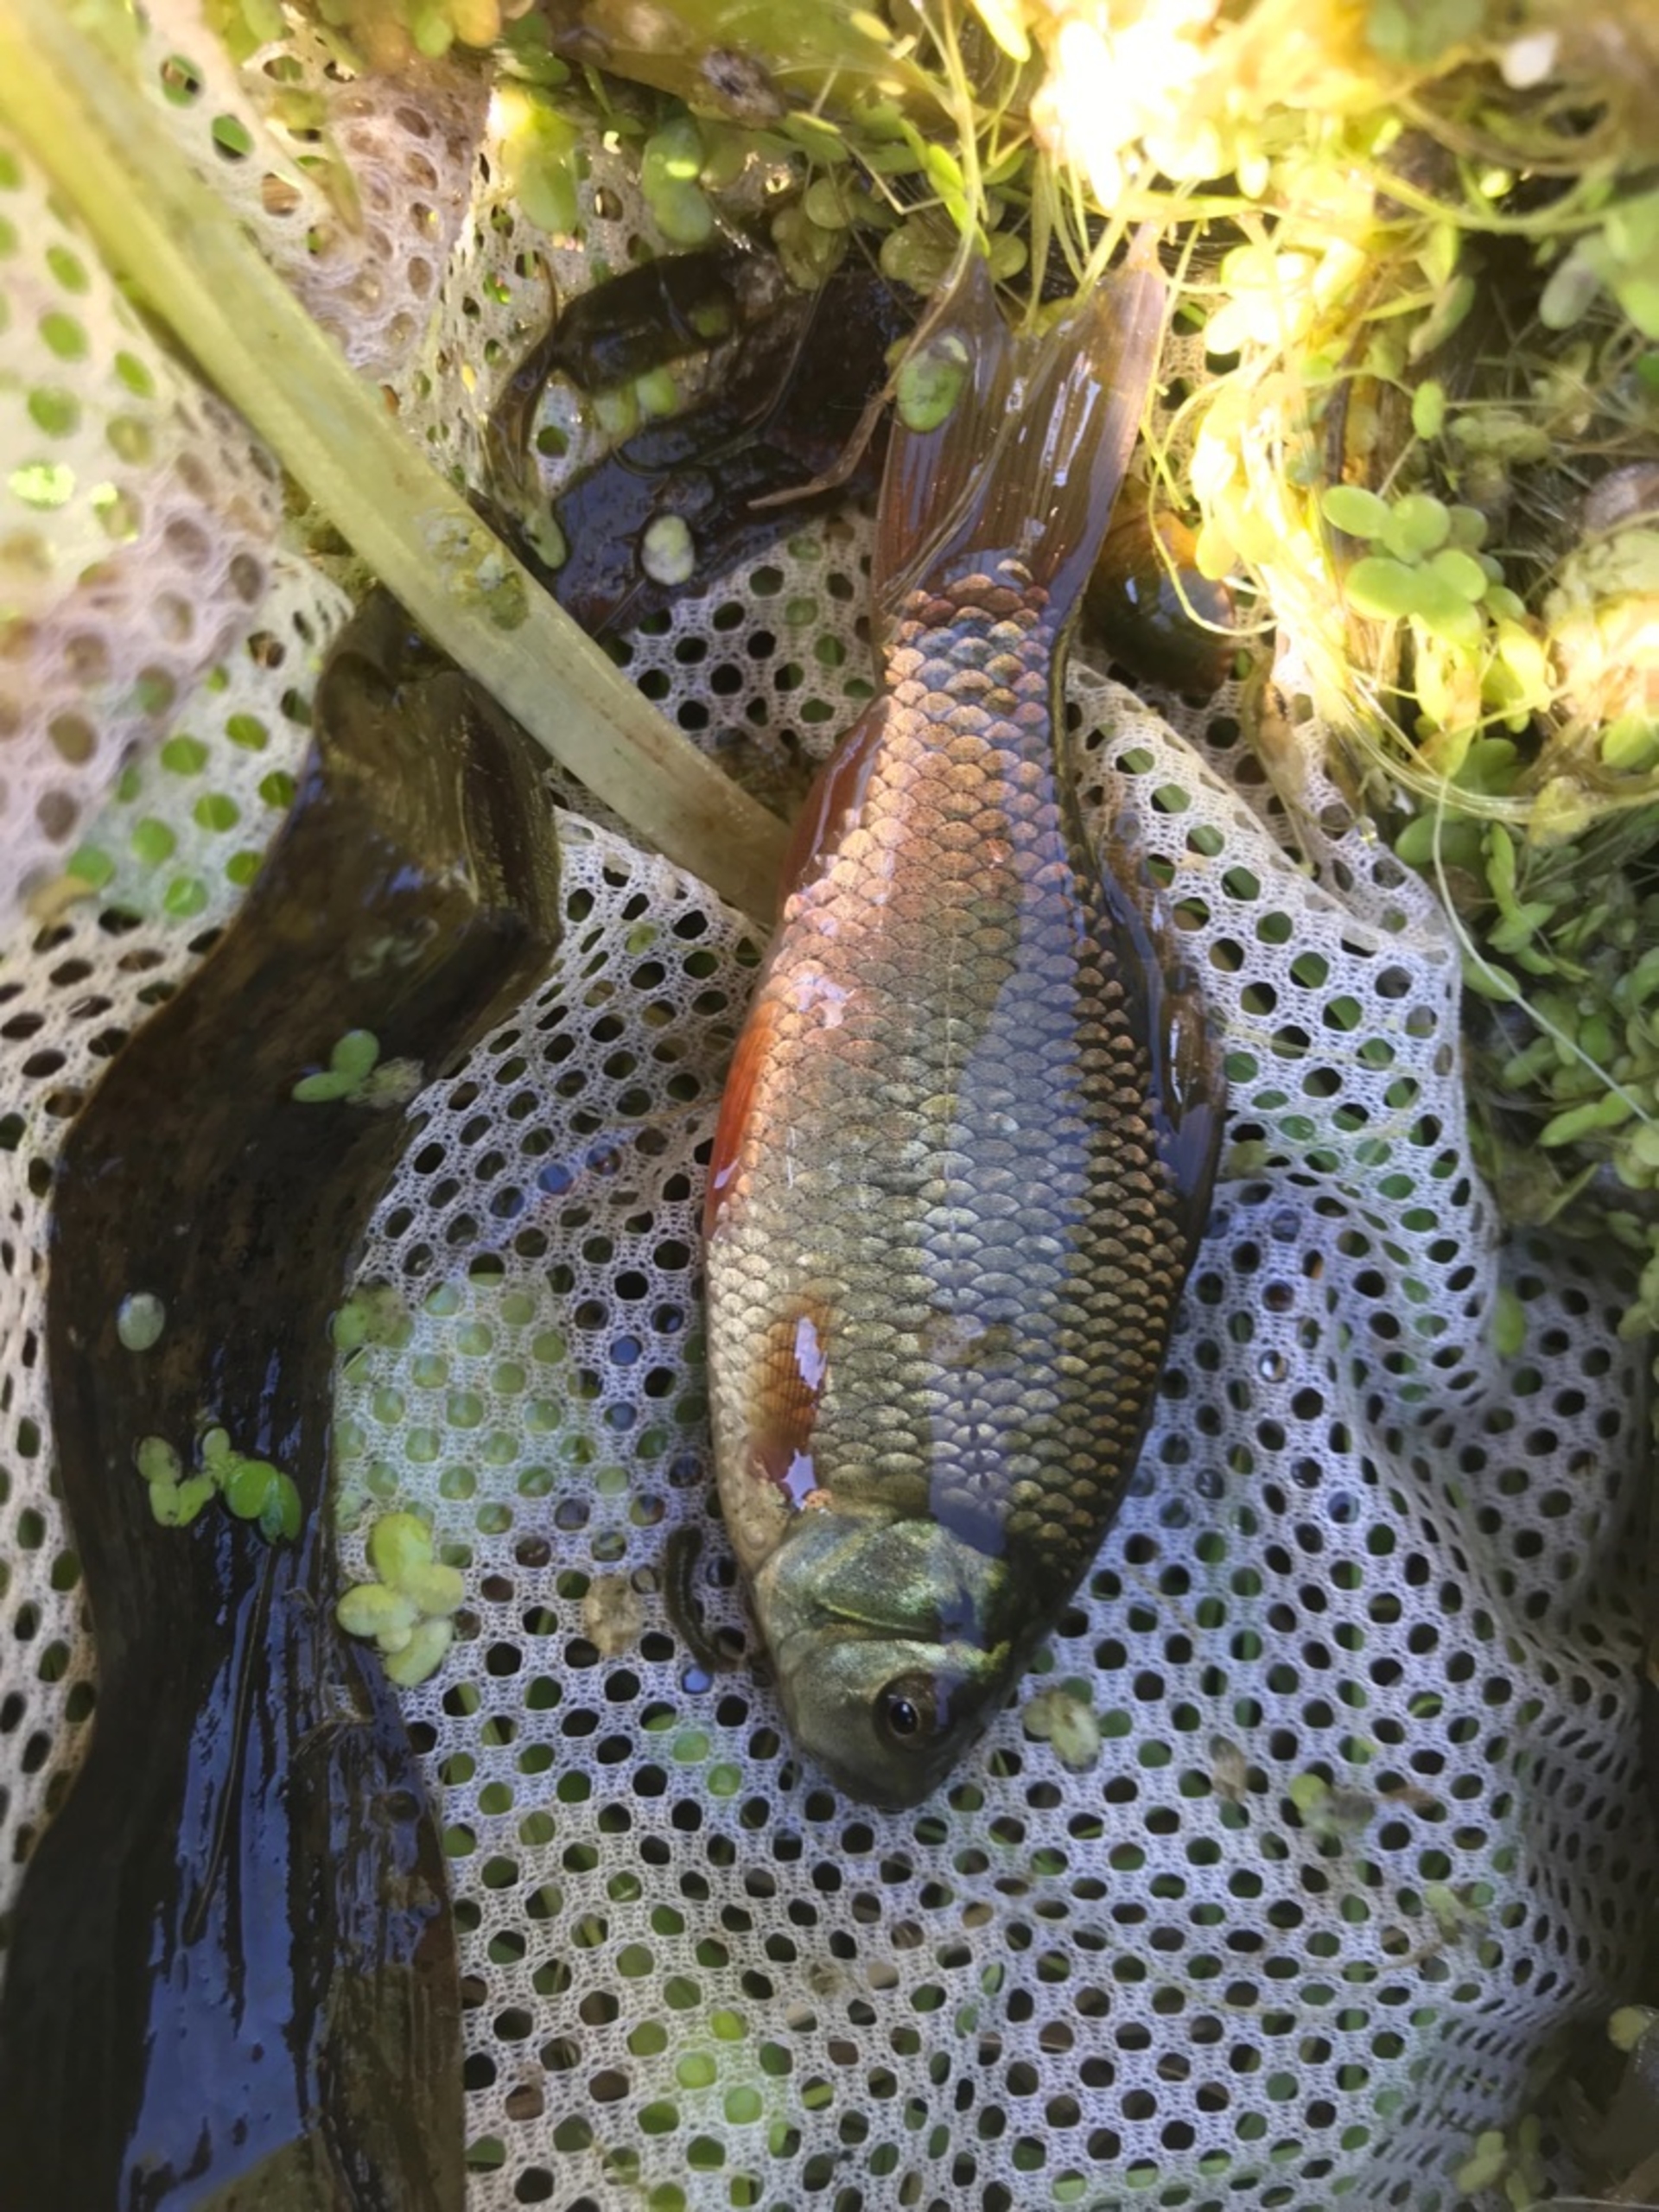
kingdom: Animalia
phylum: Chordata
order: Cypriniformes
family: Cyprinidae
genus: Carassius
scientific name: Carassius carassius
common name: Karusse
